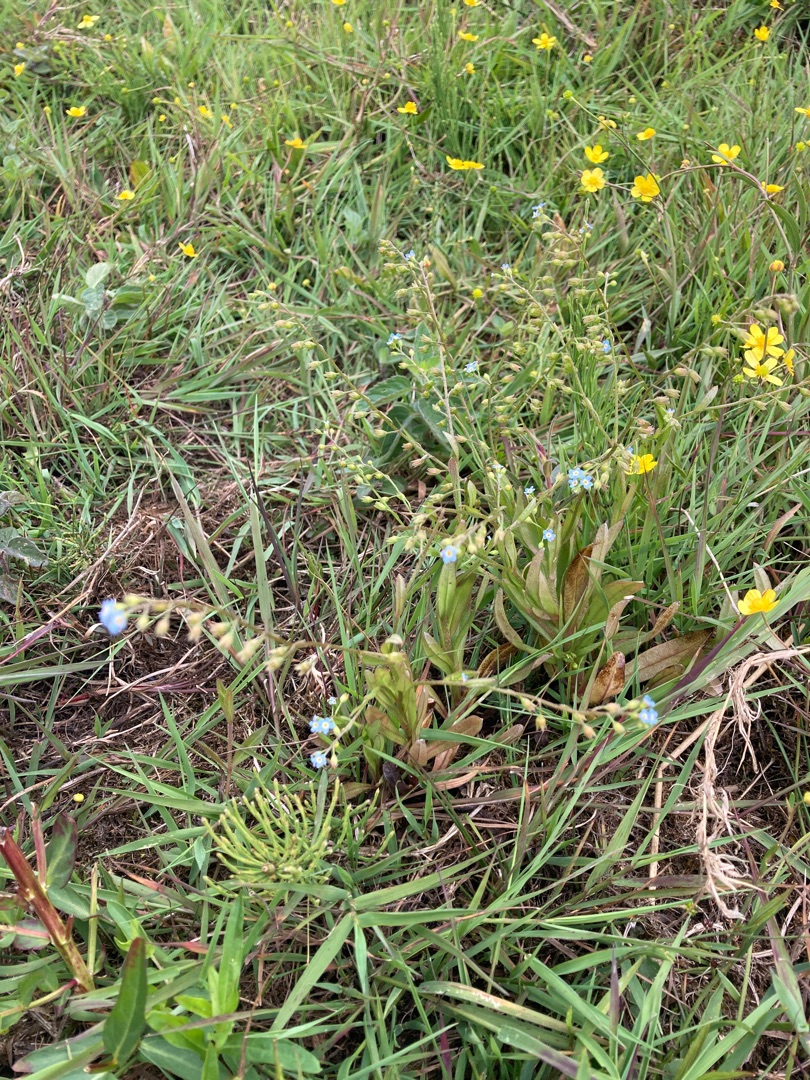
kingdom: Plantae
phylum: Tracheophyta
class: Magnoliopsida
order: Boraginales
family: Boraginaceae
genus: Myosotis
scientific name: Myosotis laxa
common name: Sump-forglemmigej
